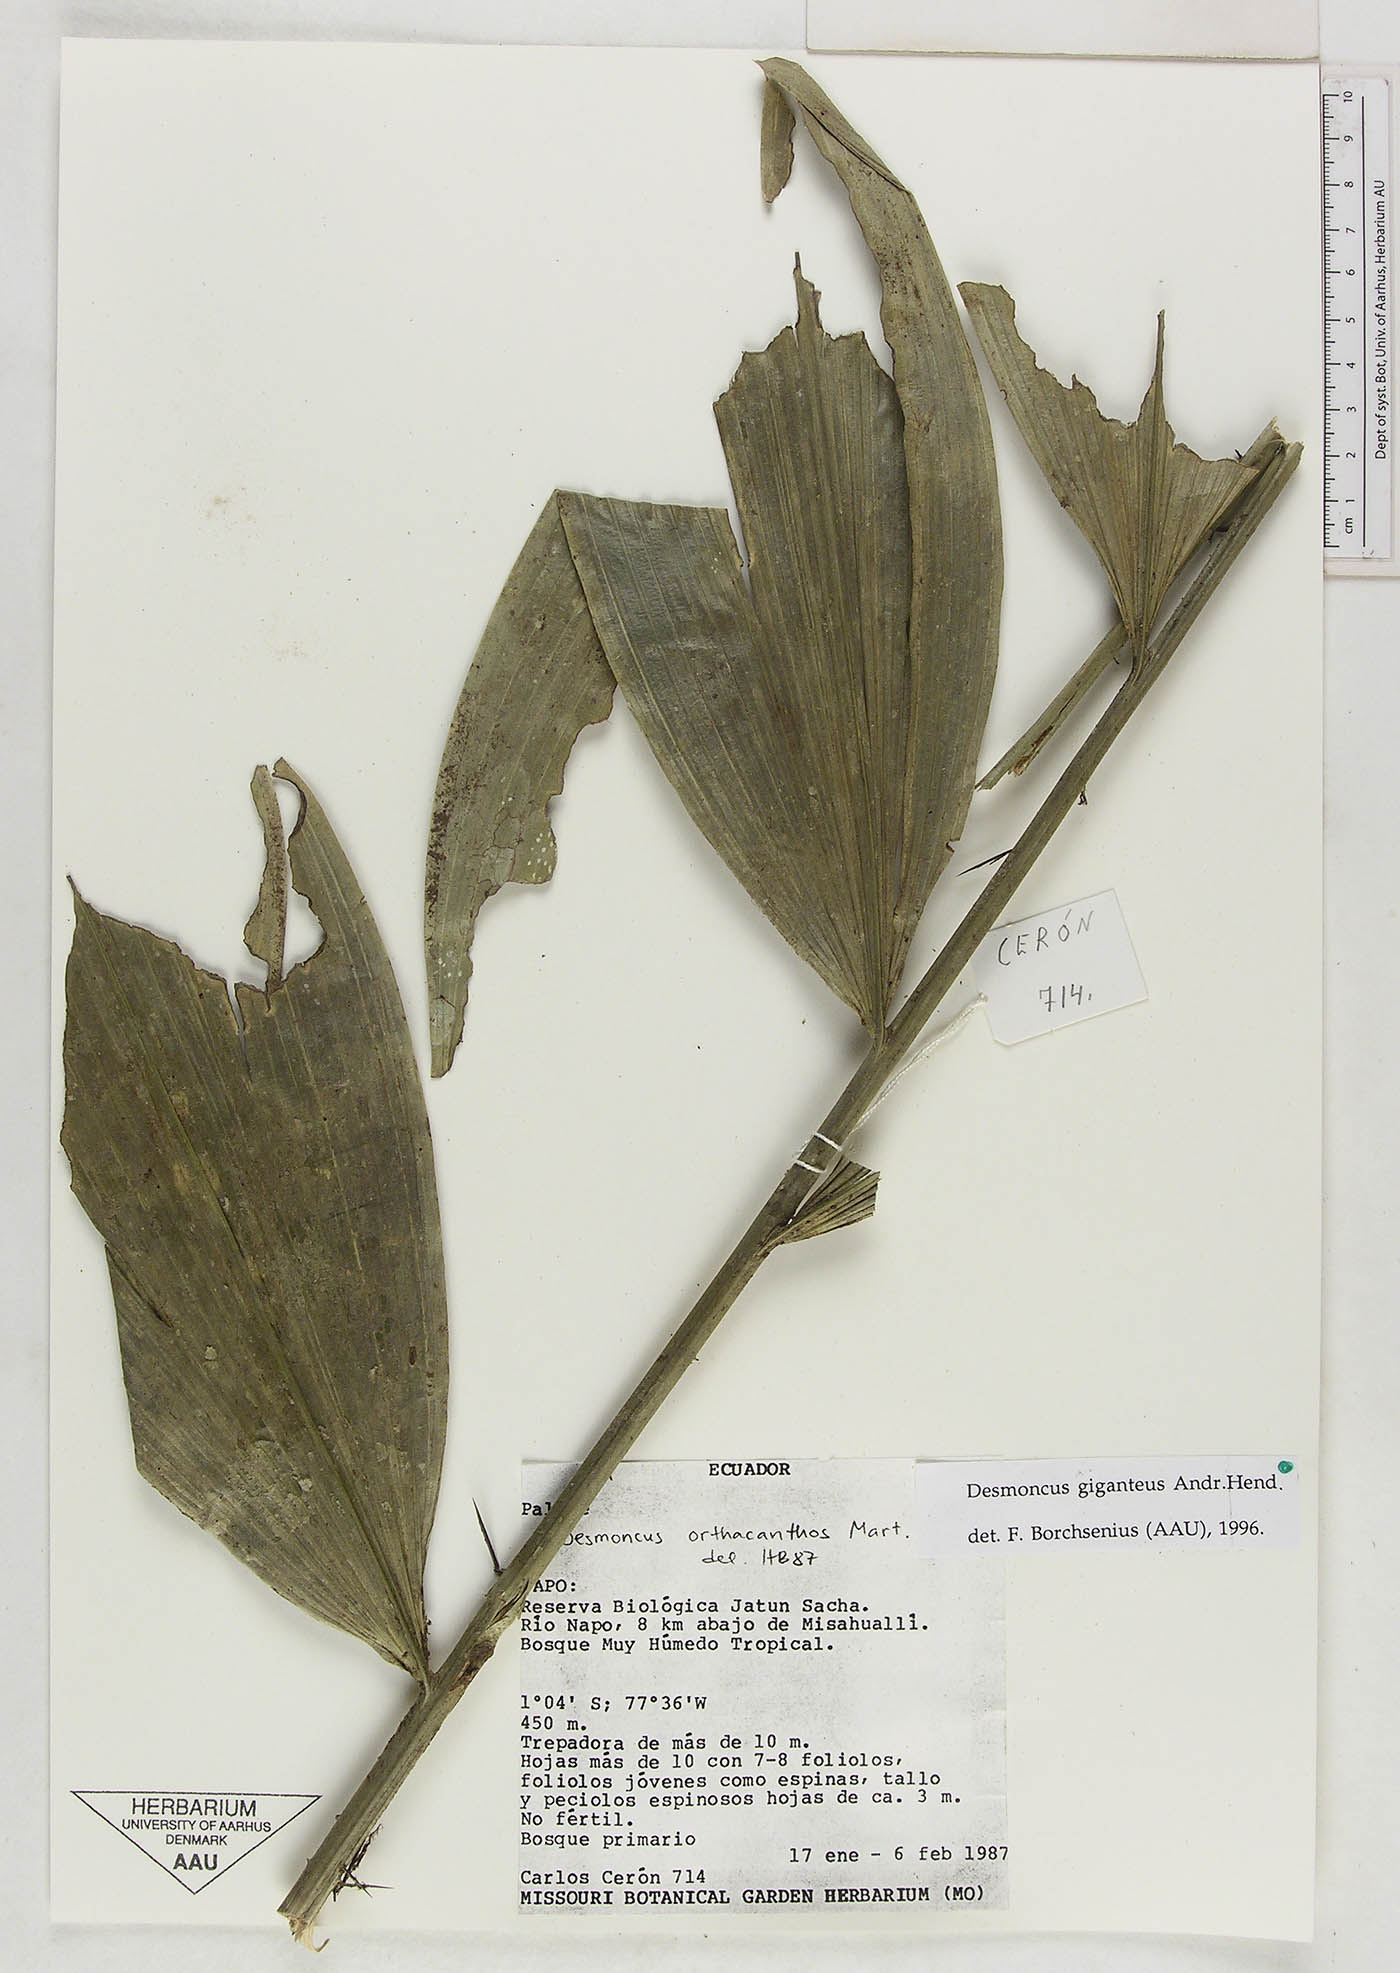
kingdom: Plantae
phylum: Tracheophyta
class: Liliopsida
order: Arecales
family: Arecaceae
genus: Desmoncus
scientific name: Desmoncus giganteus
